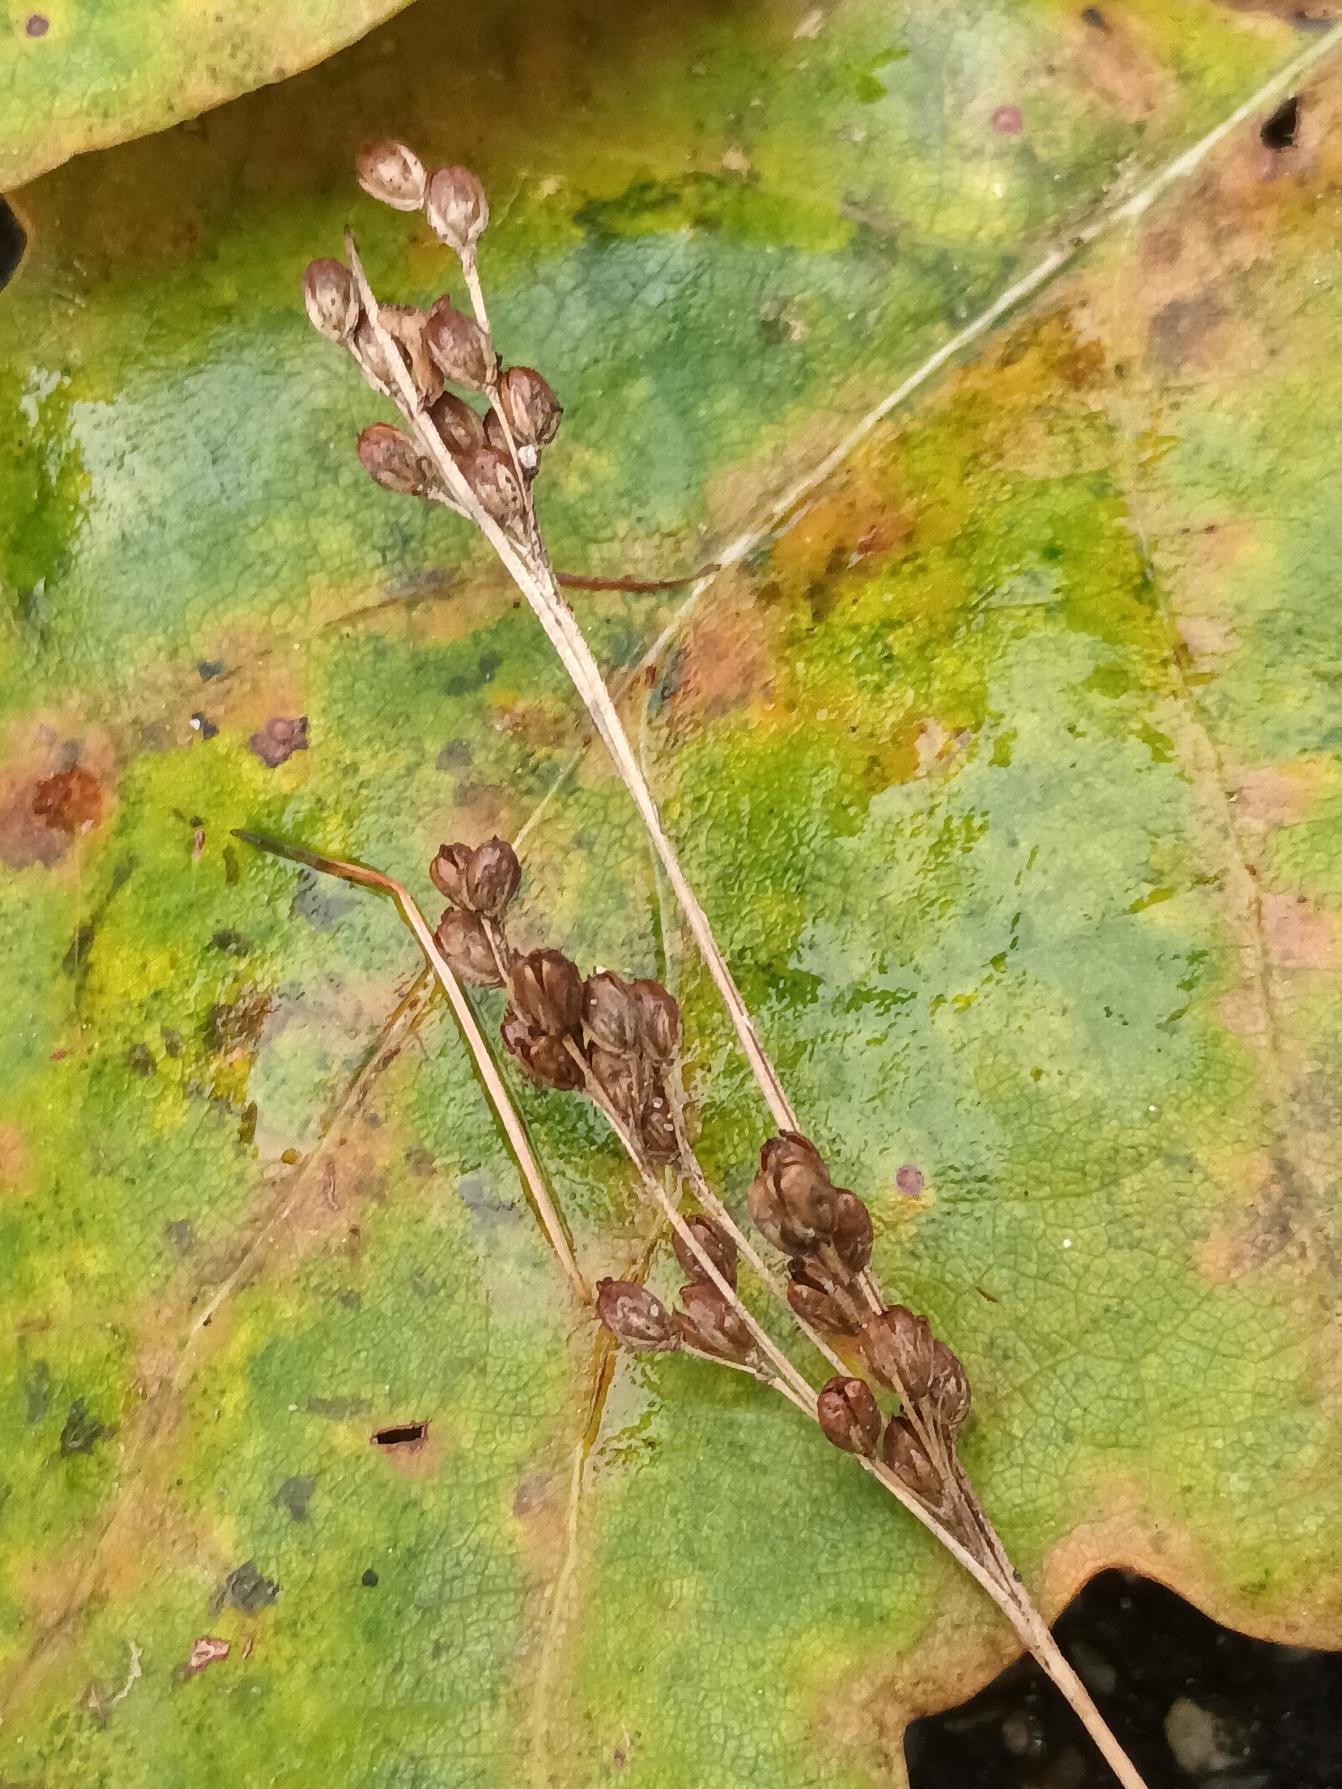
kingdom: Plantae
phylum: Tracheophyta
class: Liliopsida
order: Poales
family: Juncaceae
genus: Juncus
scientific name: Juncus compressus
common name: Fladstrået siv
